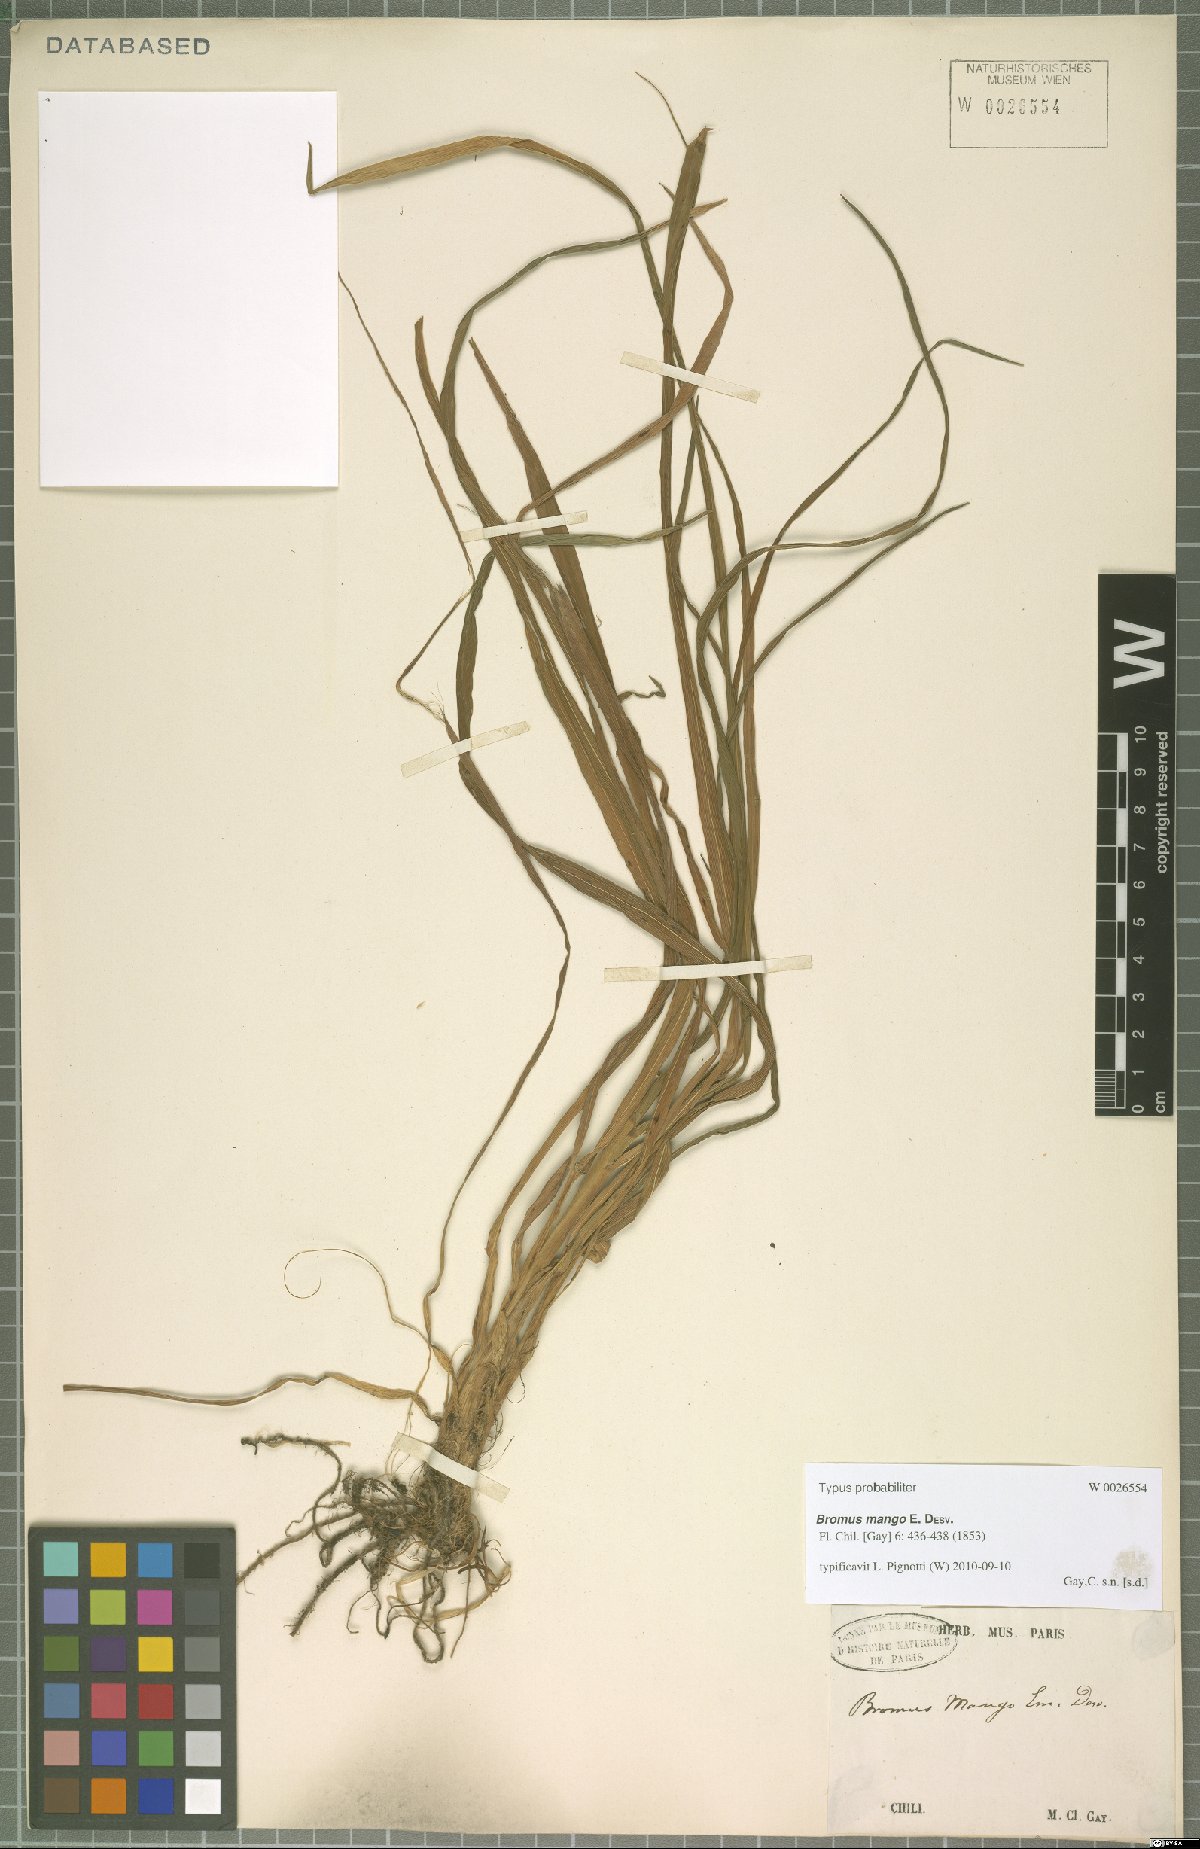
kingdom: Plantae
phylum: Tracheophyta
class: Liliopsida
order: Poales
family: Poaceae
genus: Bromus
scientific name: Bromus mango
